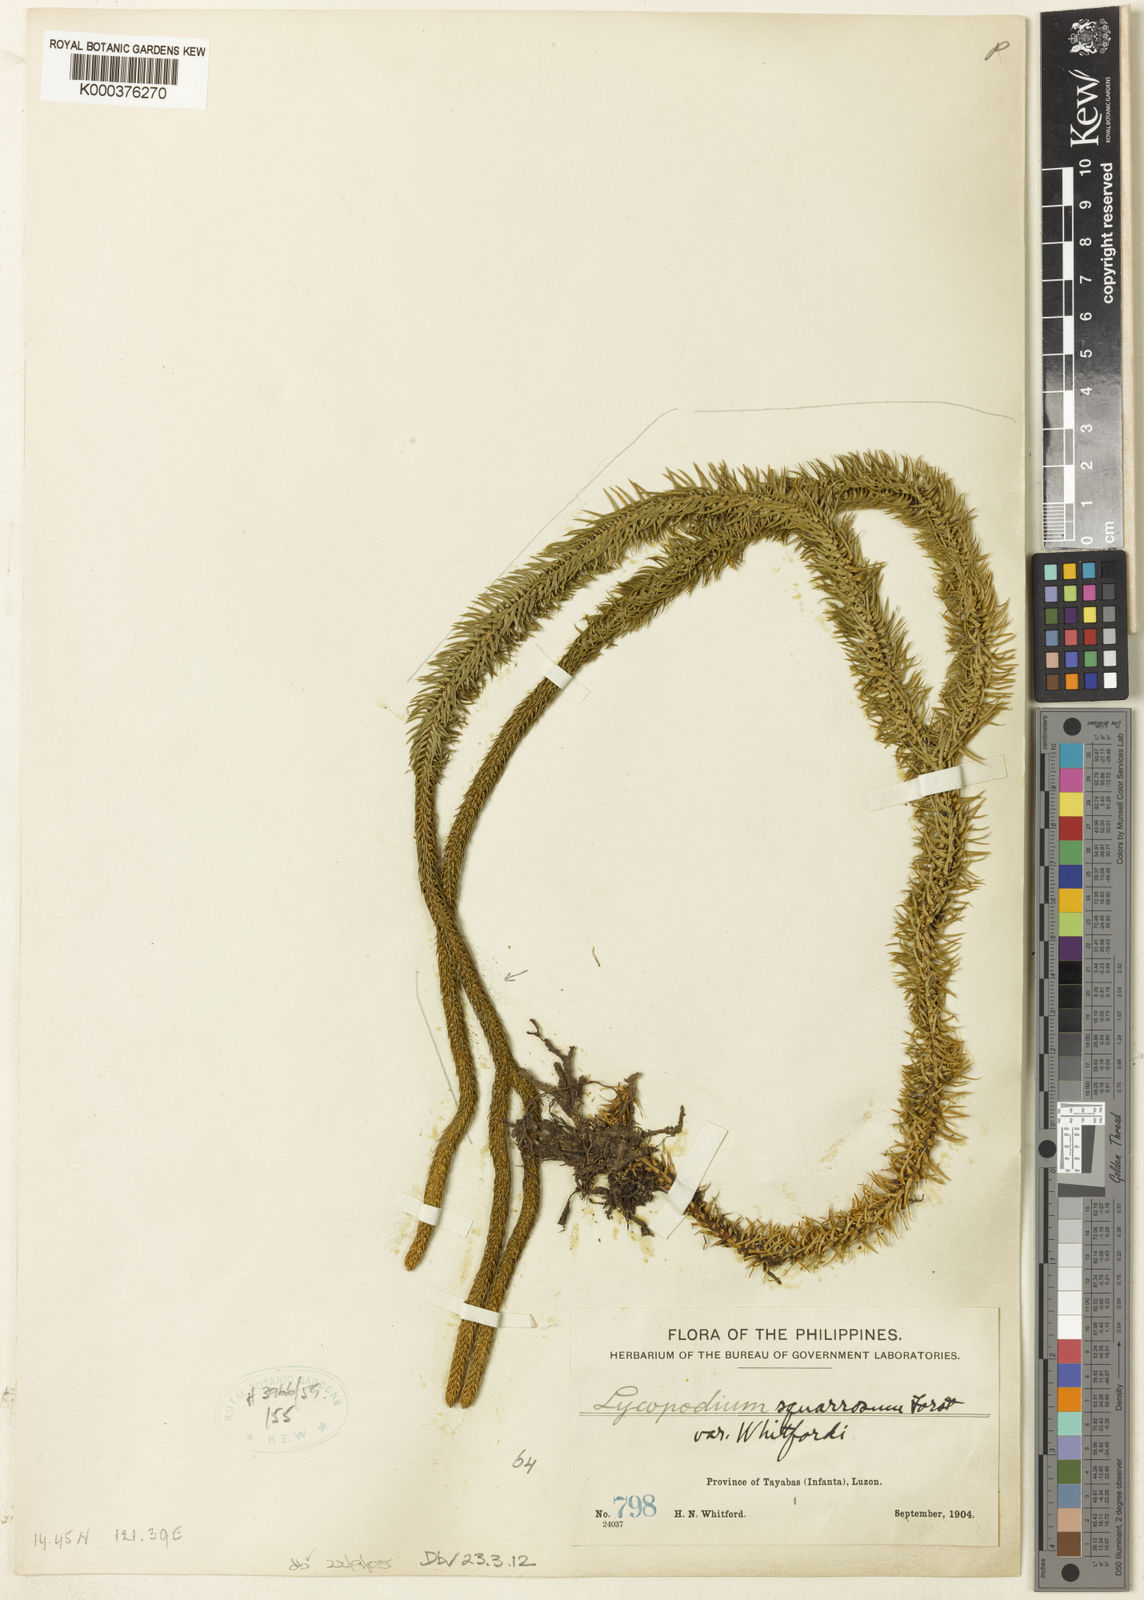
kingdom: Plantae
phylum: Tracheophyta
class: Lycopodiopsida
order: Lycopodiales
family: Lycopodiaceae
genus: Lycopodium
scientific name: Lycopodium
